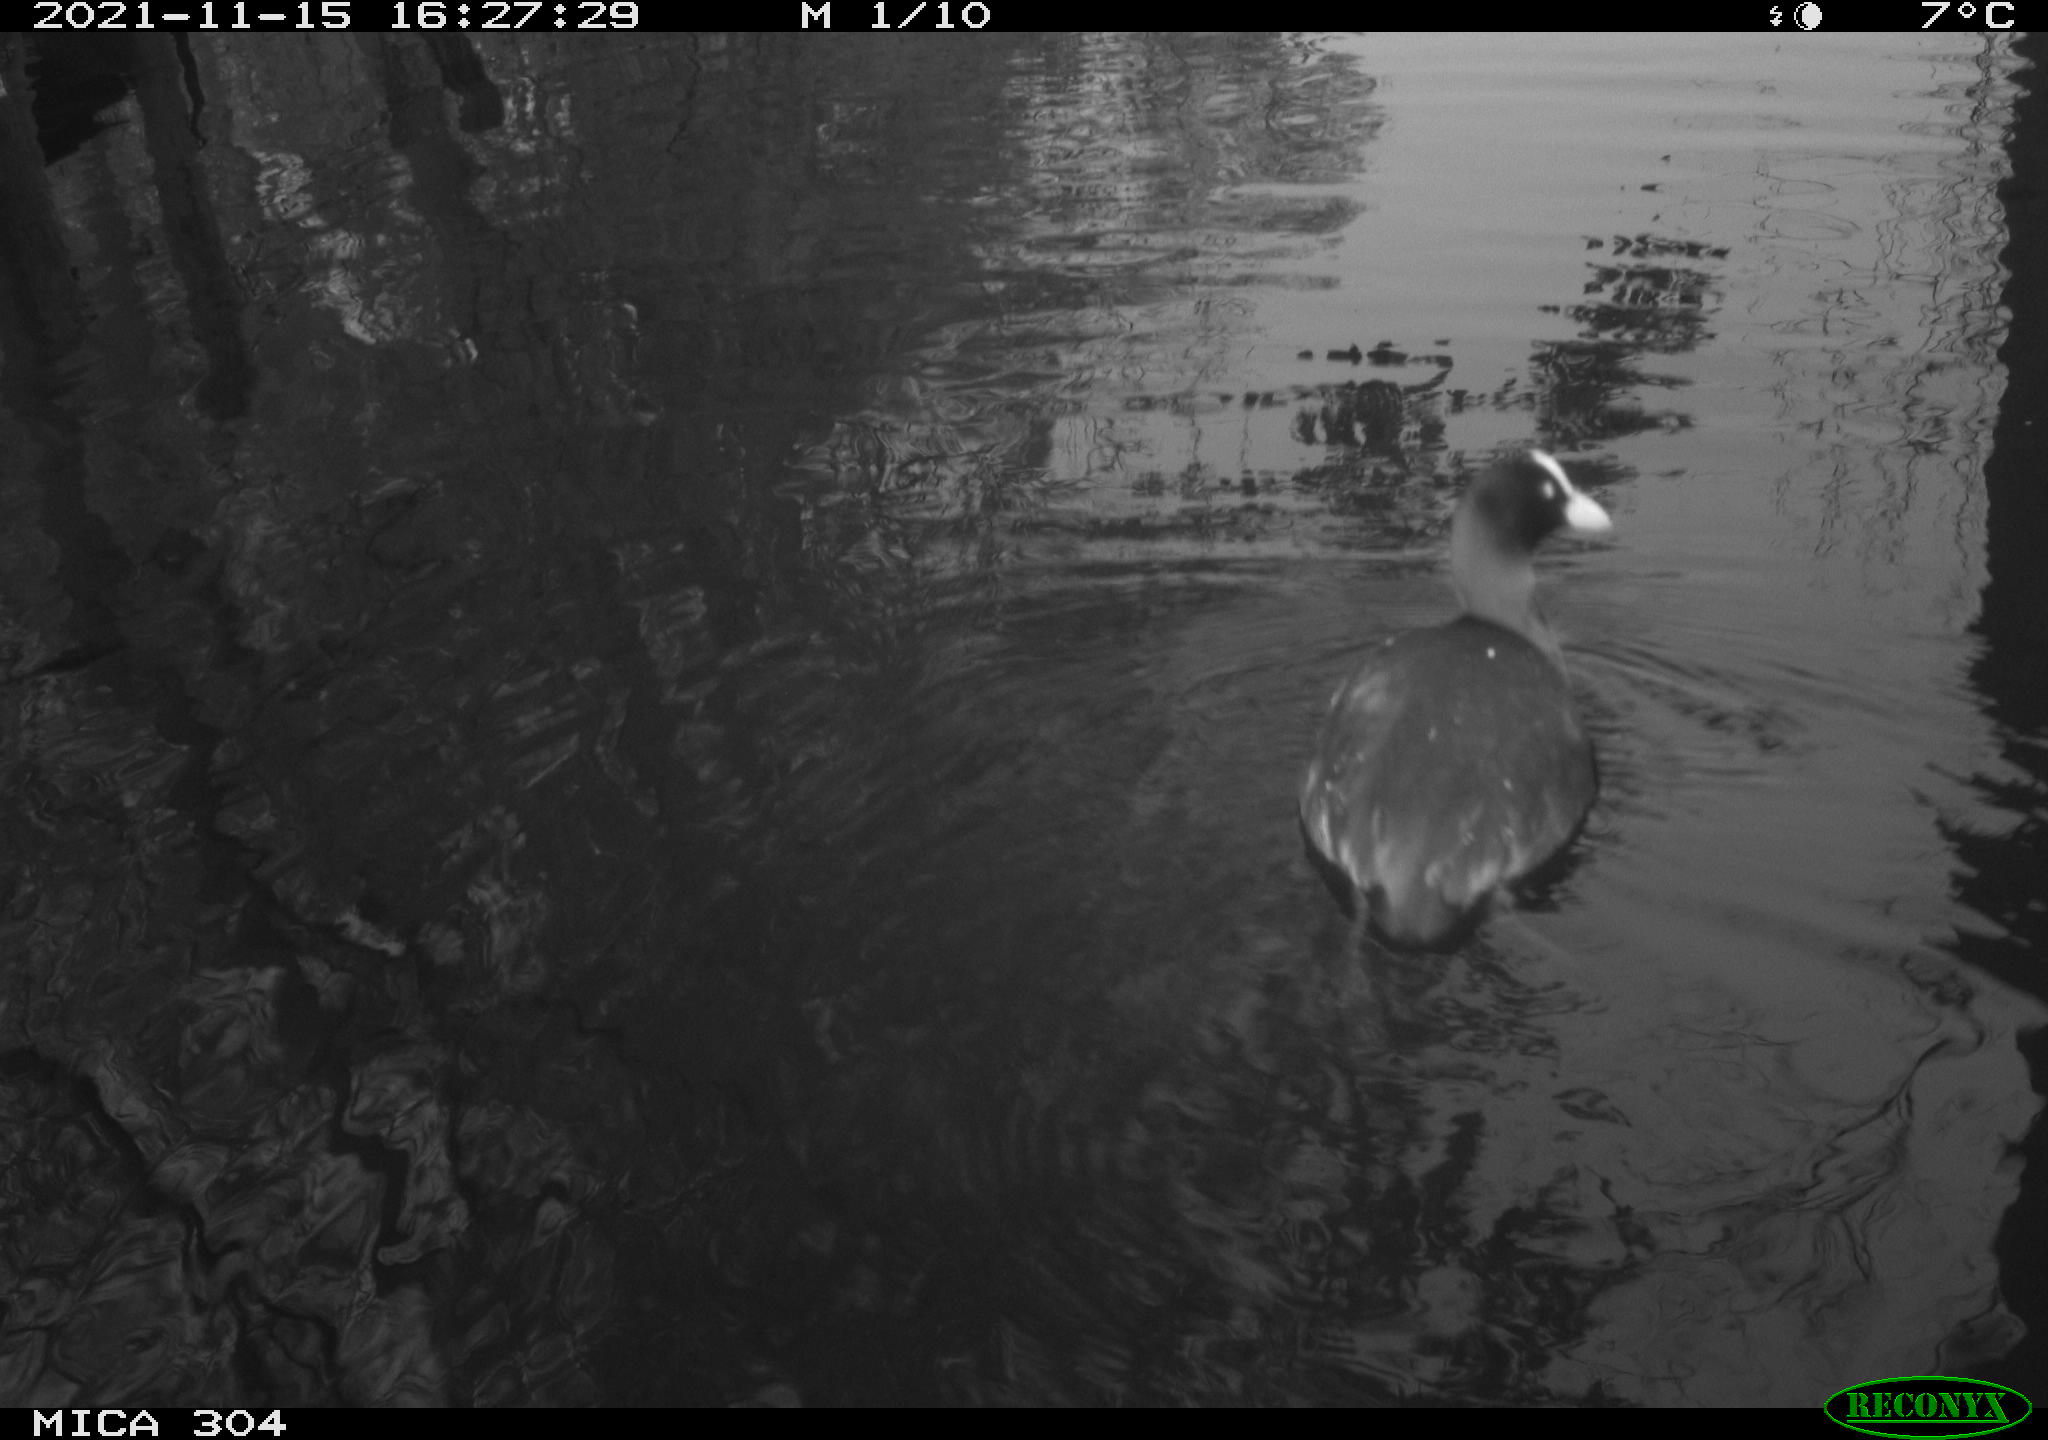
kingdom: Animalia
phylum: Chordata
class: Aves
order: Gruiformes
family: Rallidae
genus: Fulica
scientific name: Fulica atra
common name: Eurasian coot
